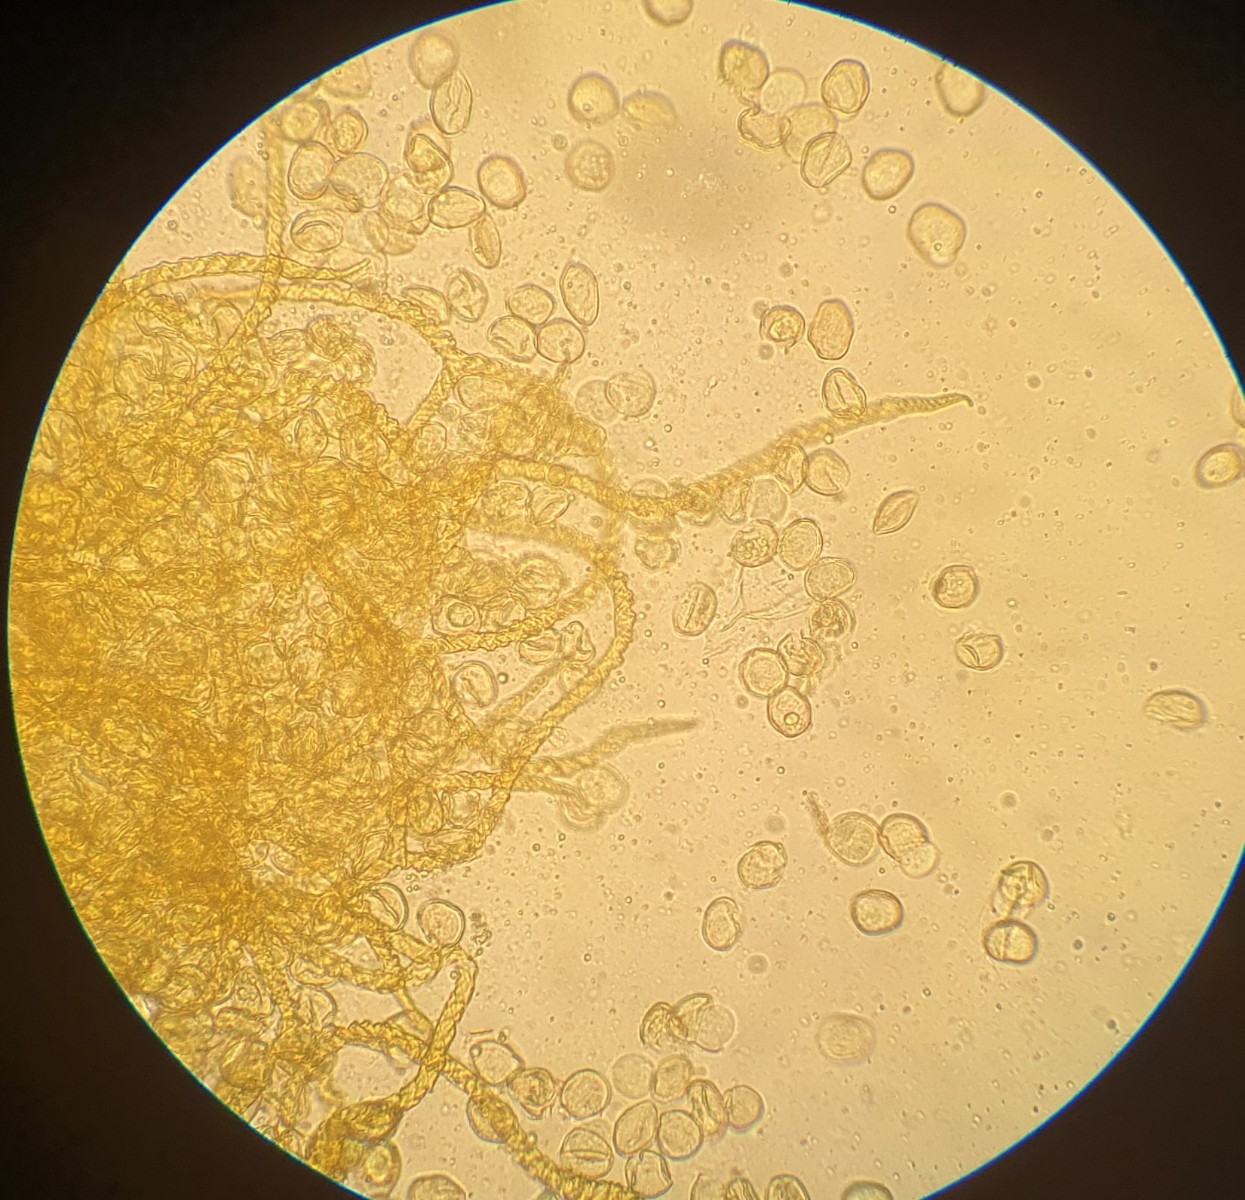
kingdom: Protozoa
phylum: Mycetozoa
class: Myxomycetes
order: Trichiales
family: Trichiaceae
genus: Trichia
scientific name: Trichia varia
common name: foranderlig hårbold
